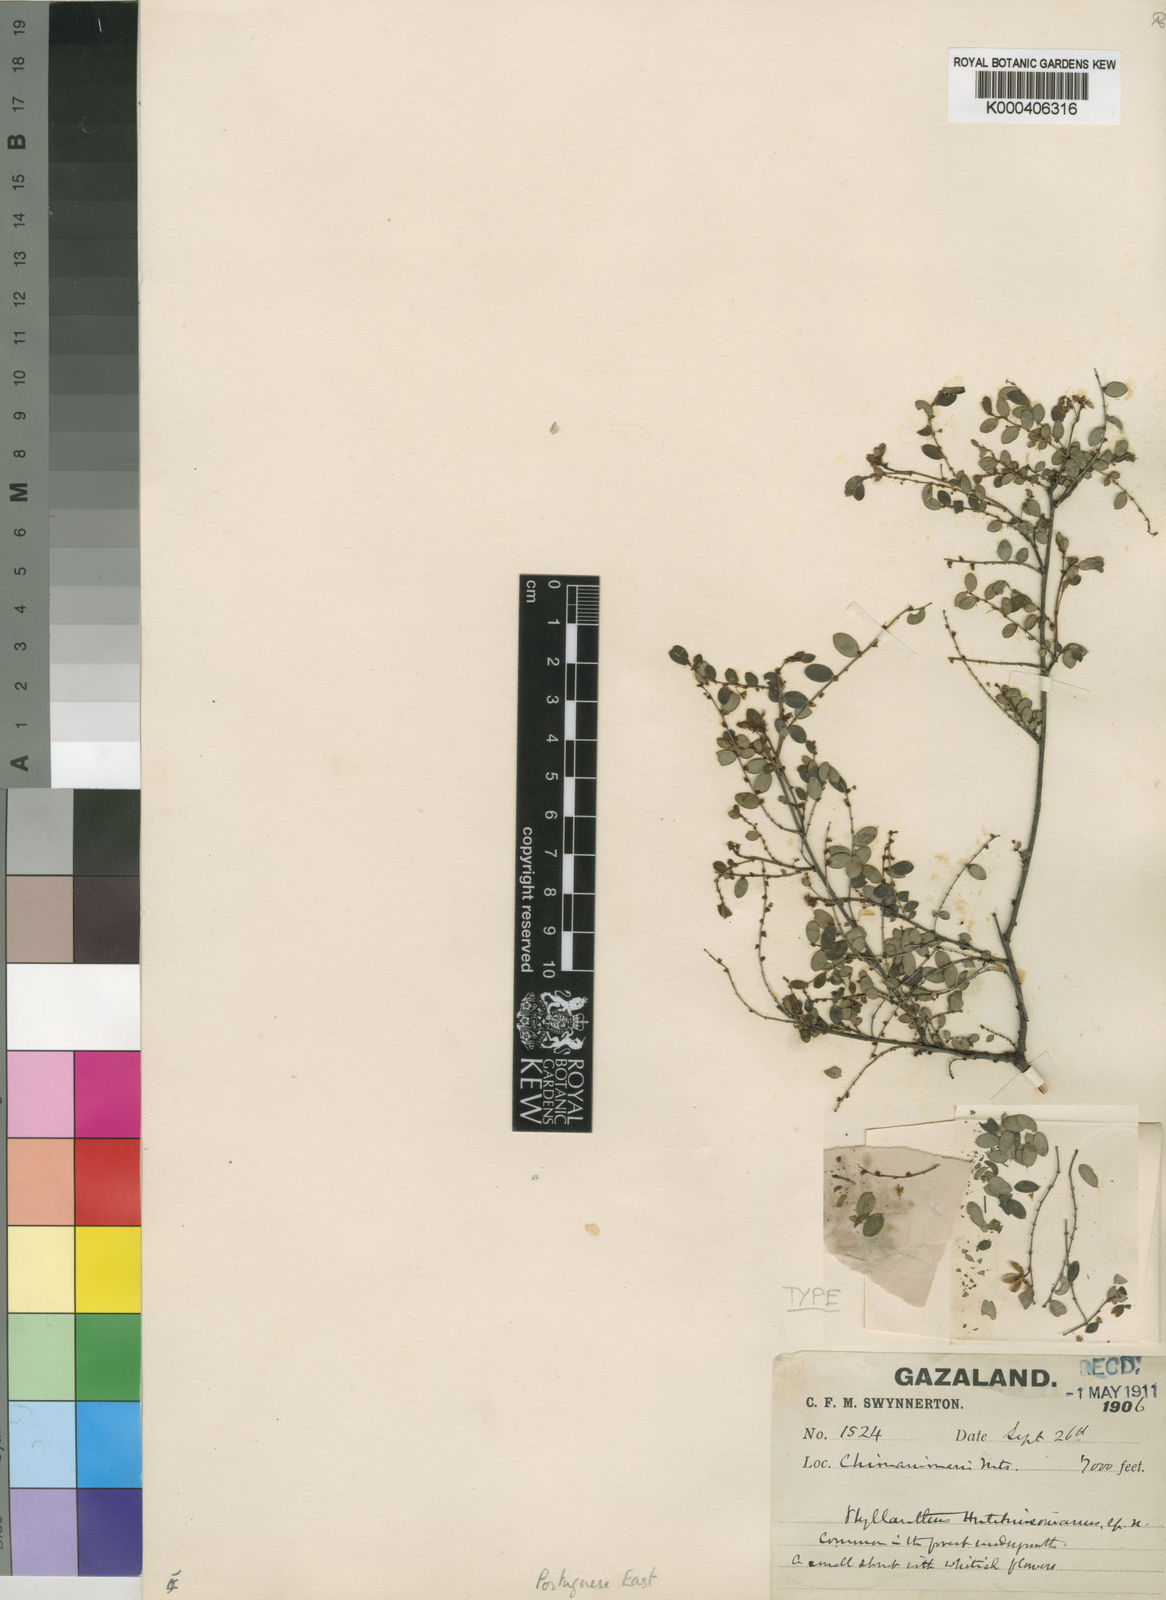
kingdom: Plantae
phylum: Tracheophyta
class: Magnoliopsida
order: Malpighiales
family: Phyllanthaceae
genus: Phyllanthus
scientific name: Phyllanthus hutchinsonianus
